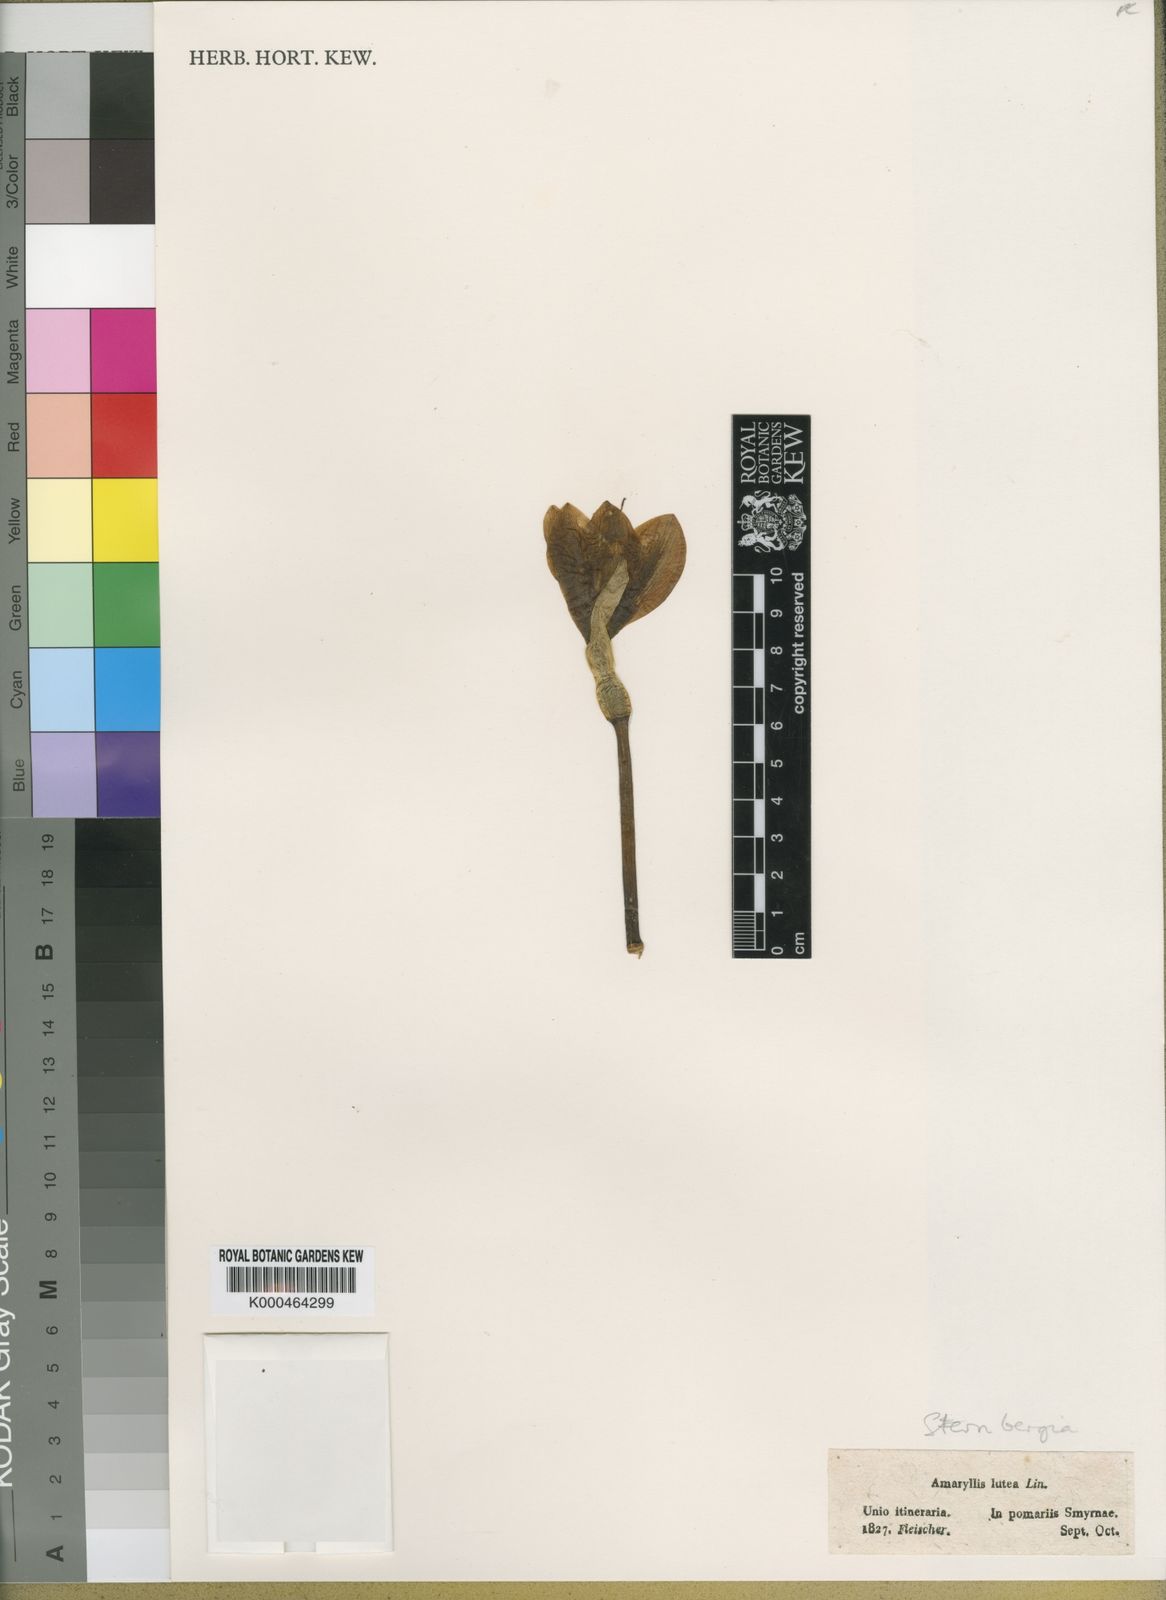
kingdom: Plantae
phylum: Tracheophyta
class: Liliopsida
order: Asparagales
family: Amaryllidaceae
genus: Sternbergia
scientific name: Sternbergia
